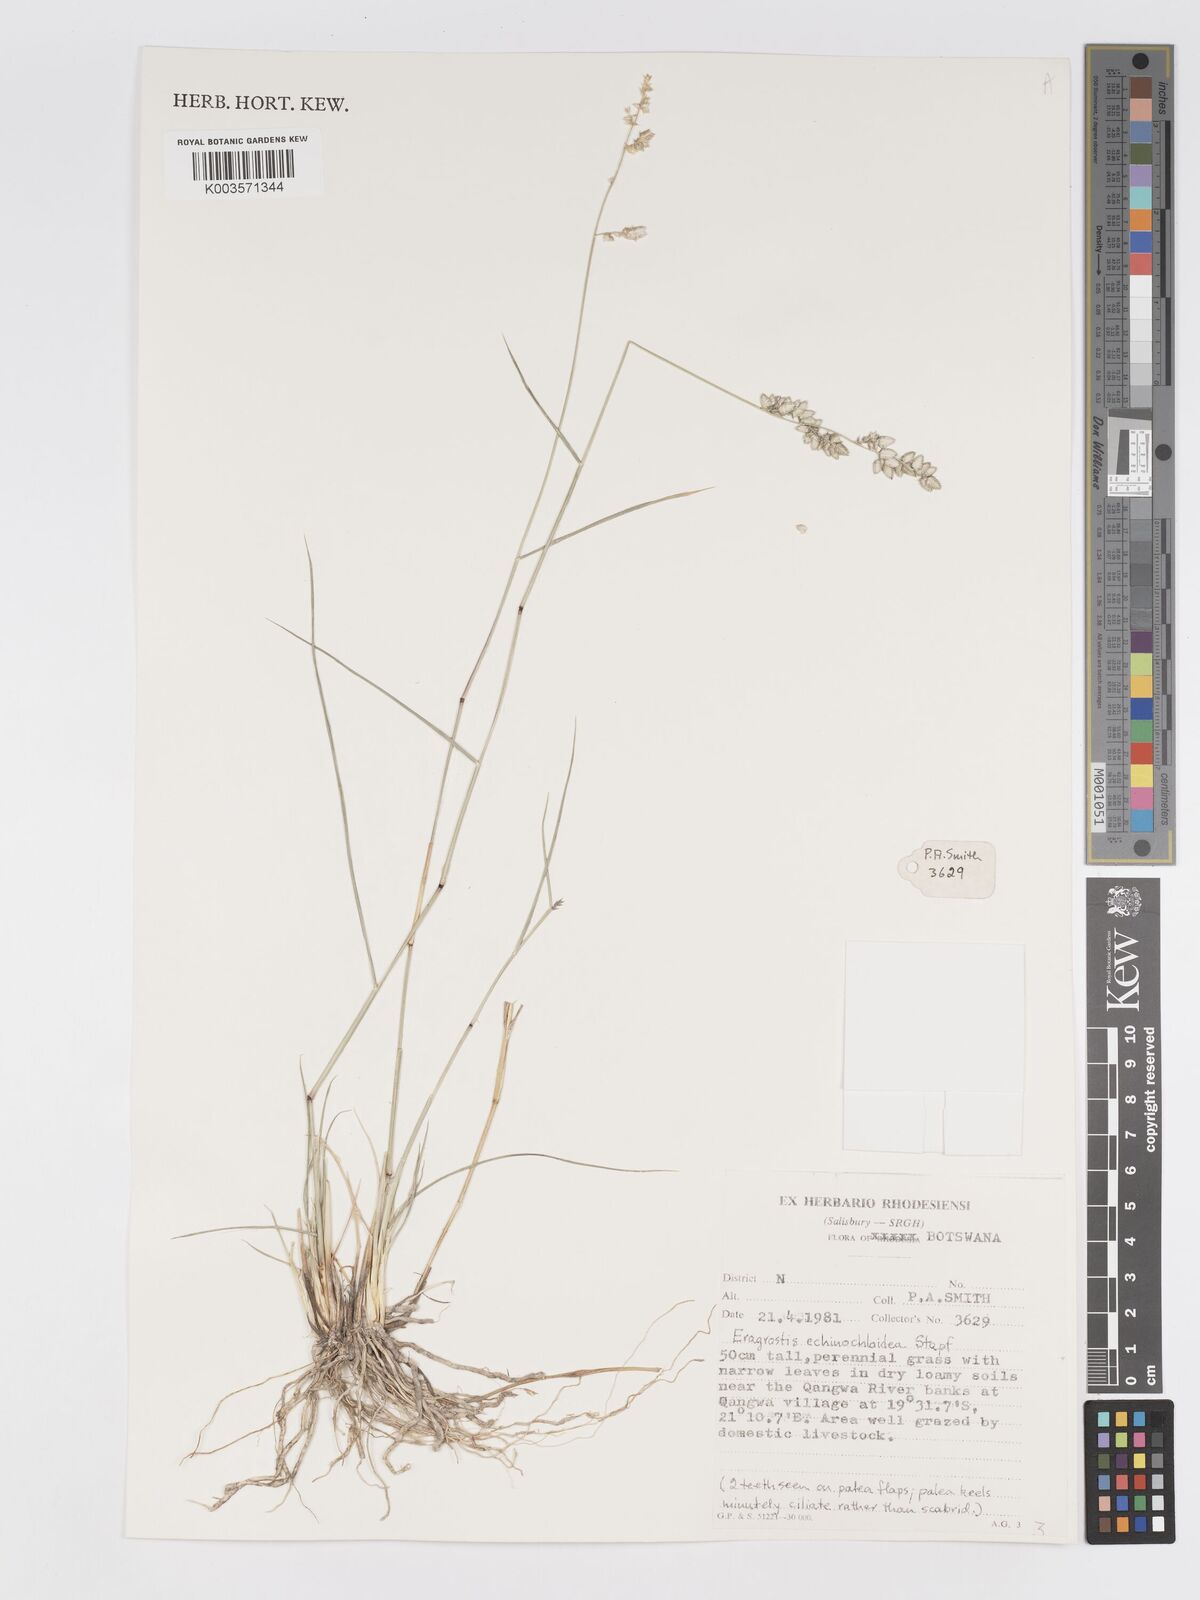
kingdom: Plantae
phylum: Tracheophyta
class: Liliopsida
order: Poales
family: Poaceae
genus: Eragrostis
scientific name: Eragrostis echinochloidea
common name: African lovegrass
